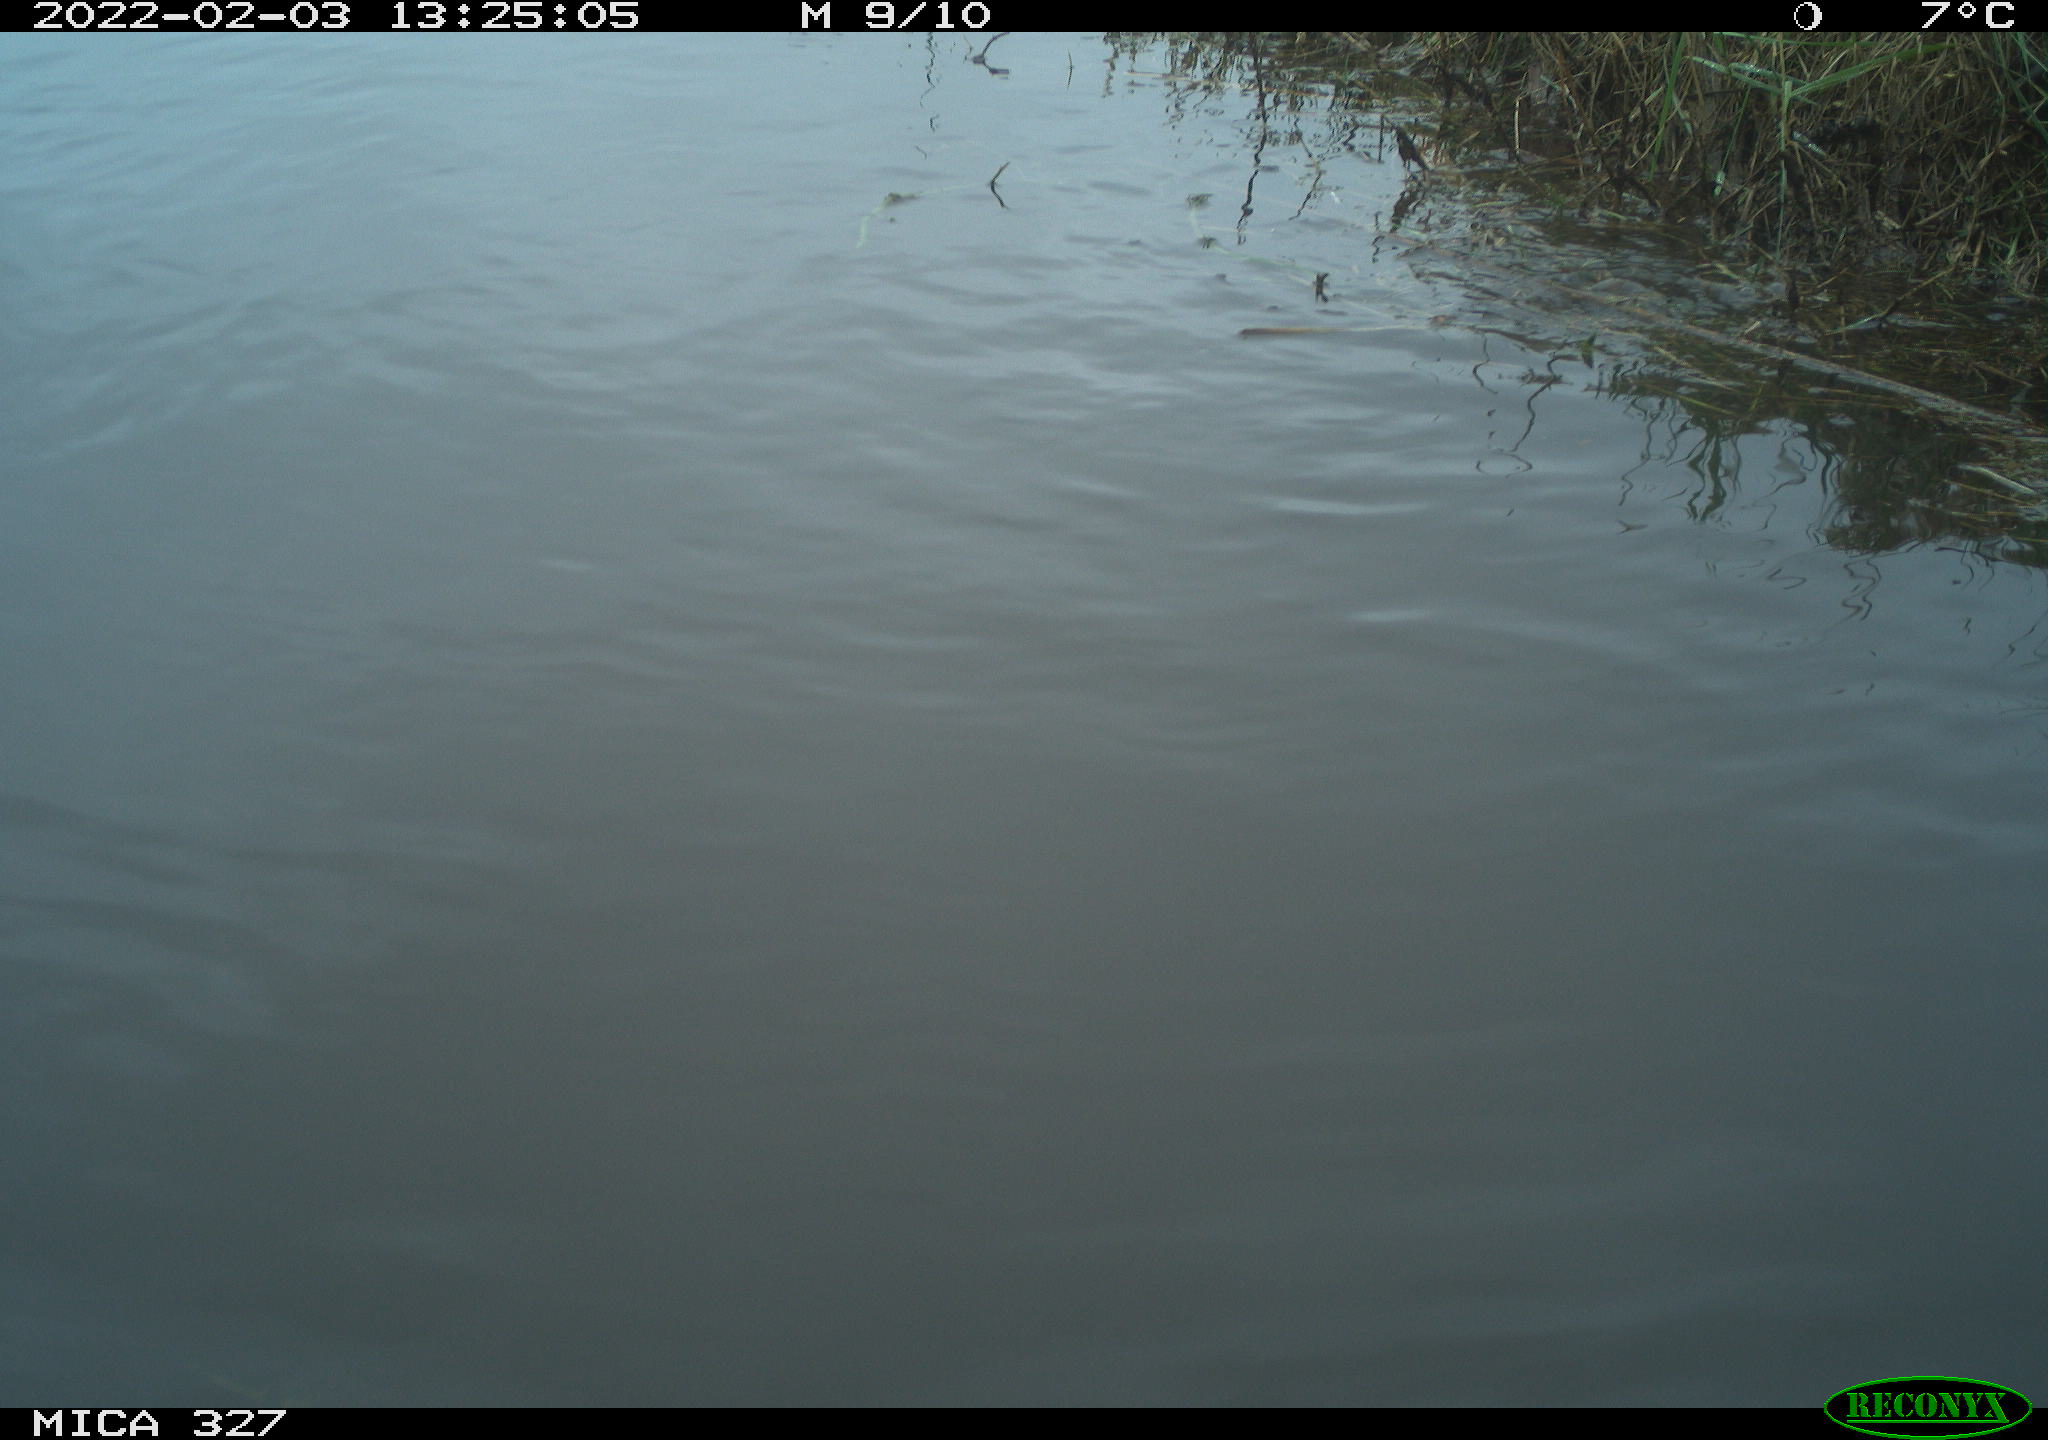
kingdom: Animalia
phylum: Chordata
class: Aves
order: Podicipediformes
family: Podicipedidae
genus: Tachybaptus
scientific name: Tachybaptus ruficollis
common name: Little grebe
